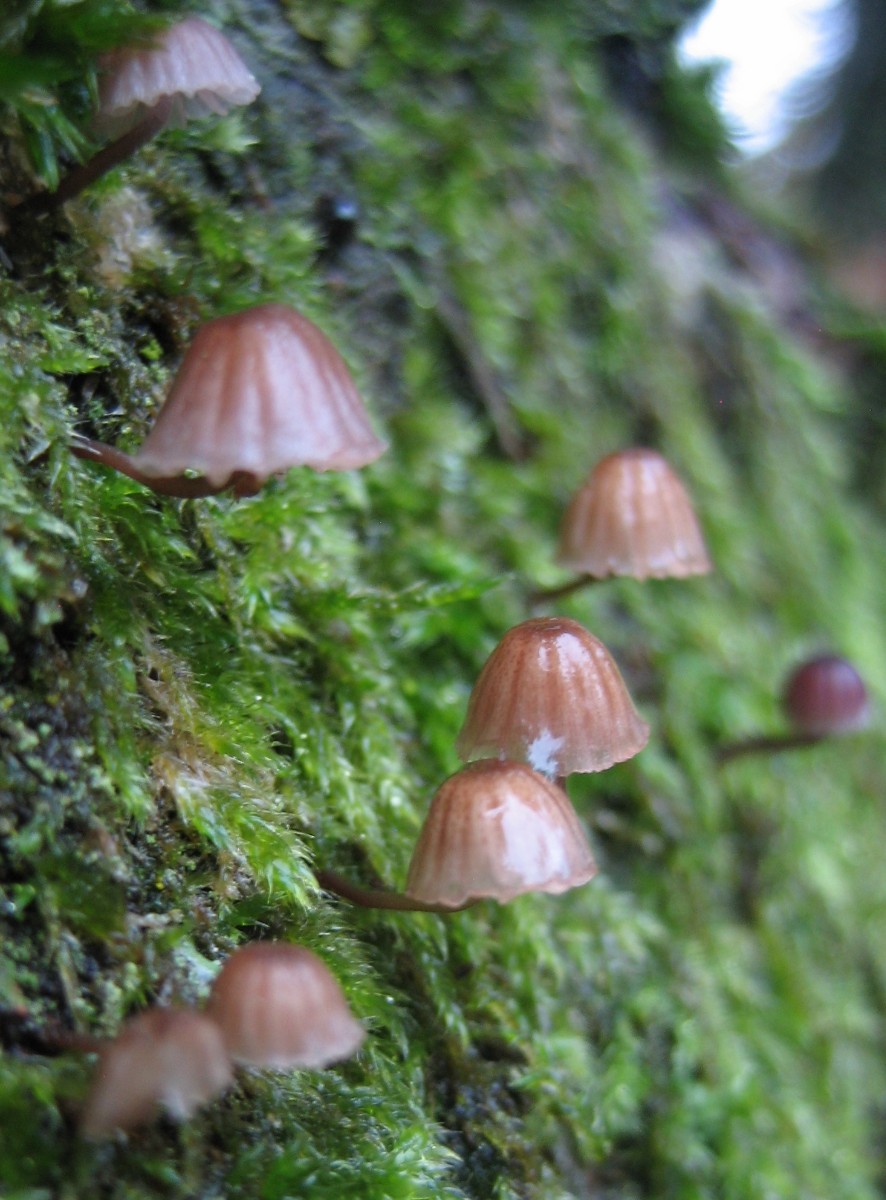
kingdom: Fungi
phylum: Basidiomycota
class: Agaricomycetes
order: Agaricales
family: Mycenaceae
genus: Mycena
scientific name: Mycena meliigena
